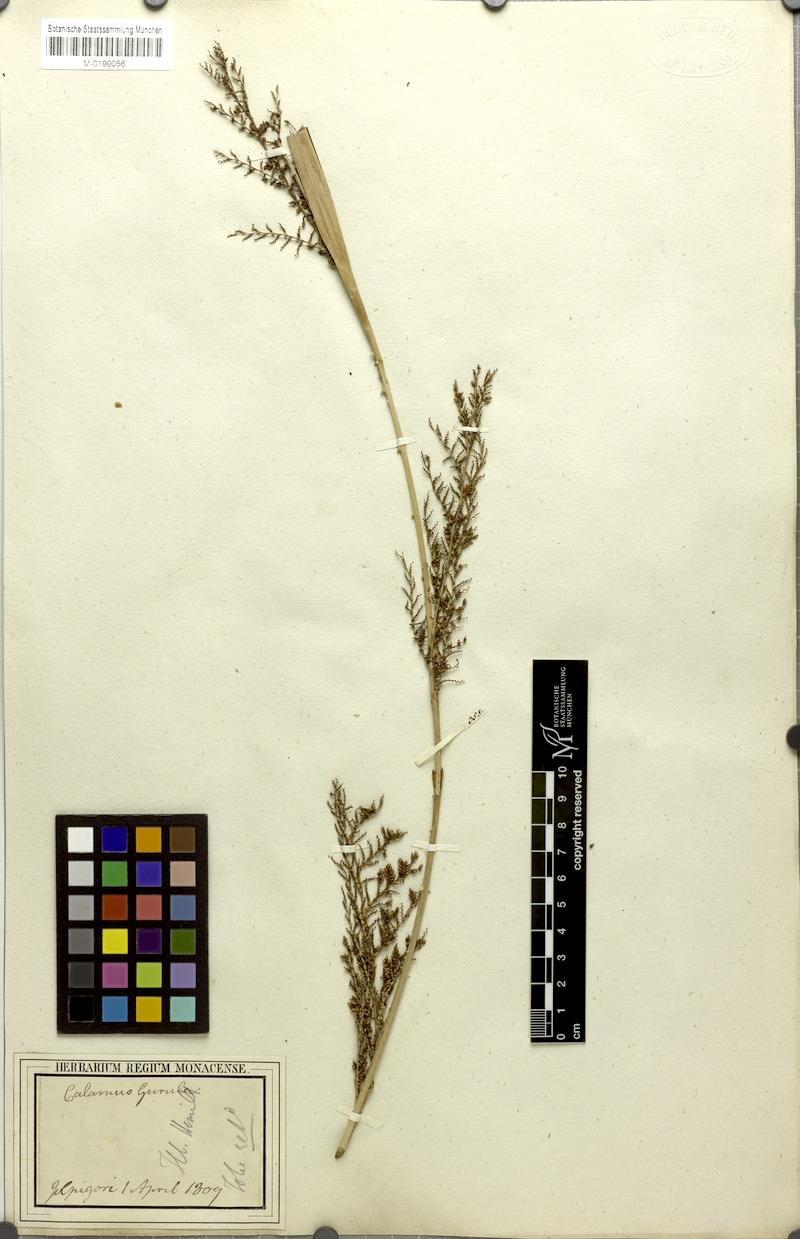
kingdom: Plantae
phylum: Tracheophyta
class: Liliopsida
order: Arecales
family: Arecaceae
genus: Calamus
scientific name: Calamus guruba
